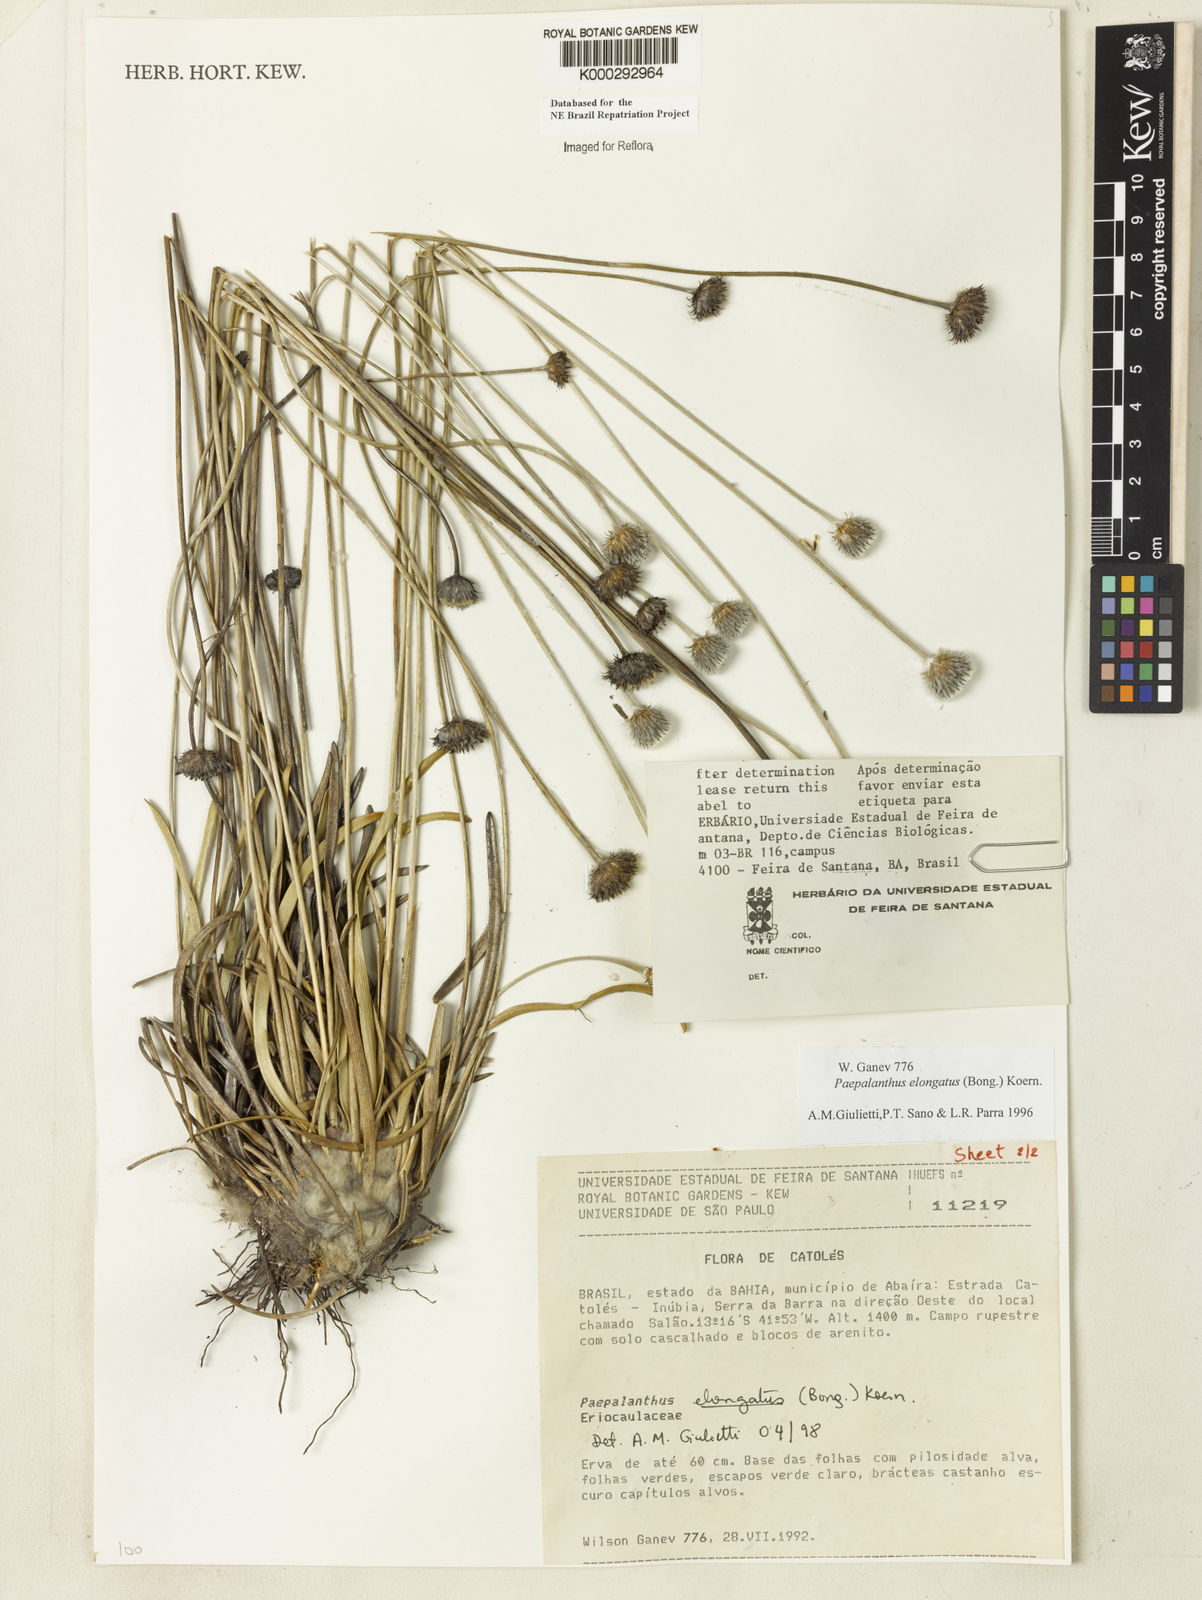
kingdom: Plantae
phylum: Tracheophyta
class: Liliopsida
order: Poales
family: Eriocaulaceae
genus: Paepalanthus
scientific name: Paepalanthus
